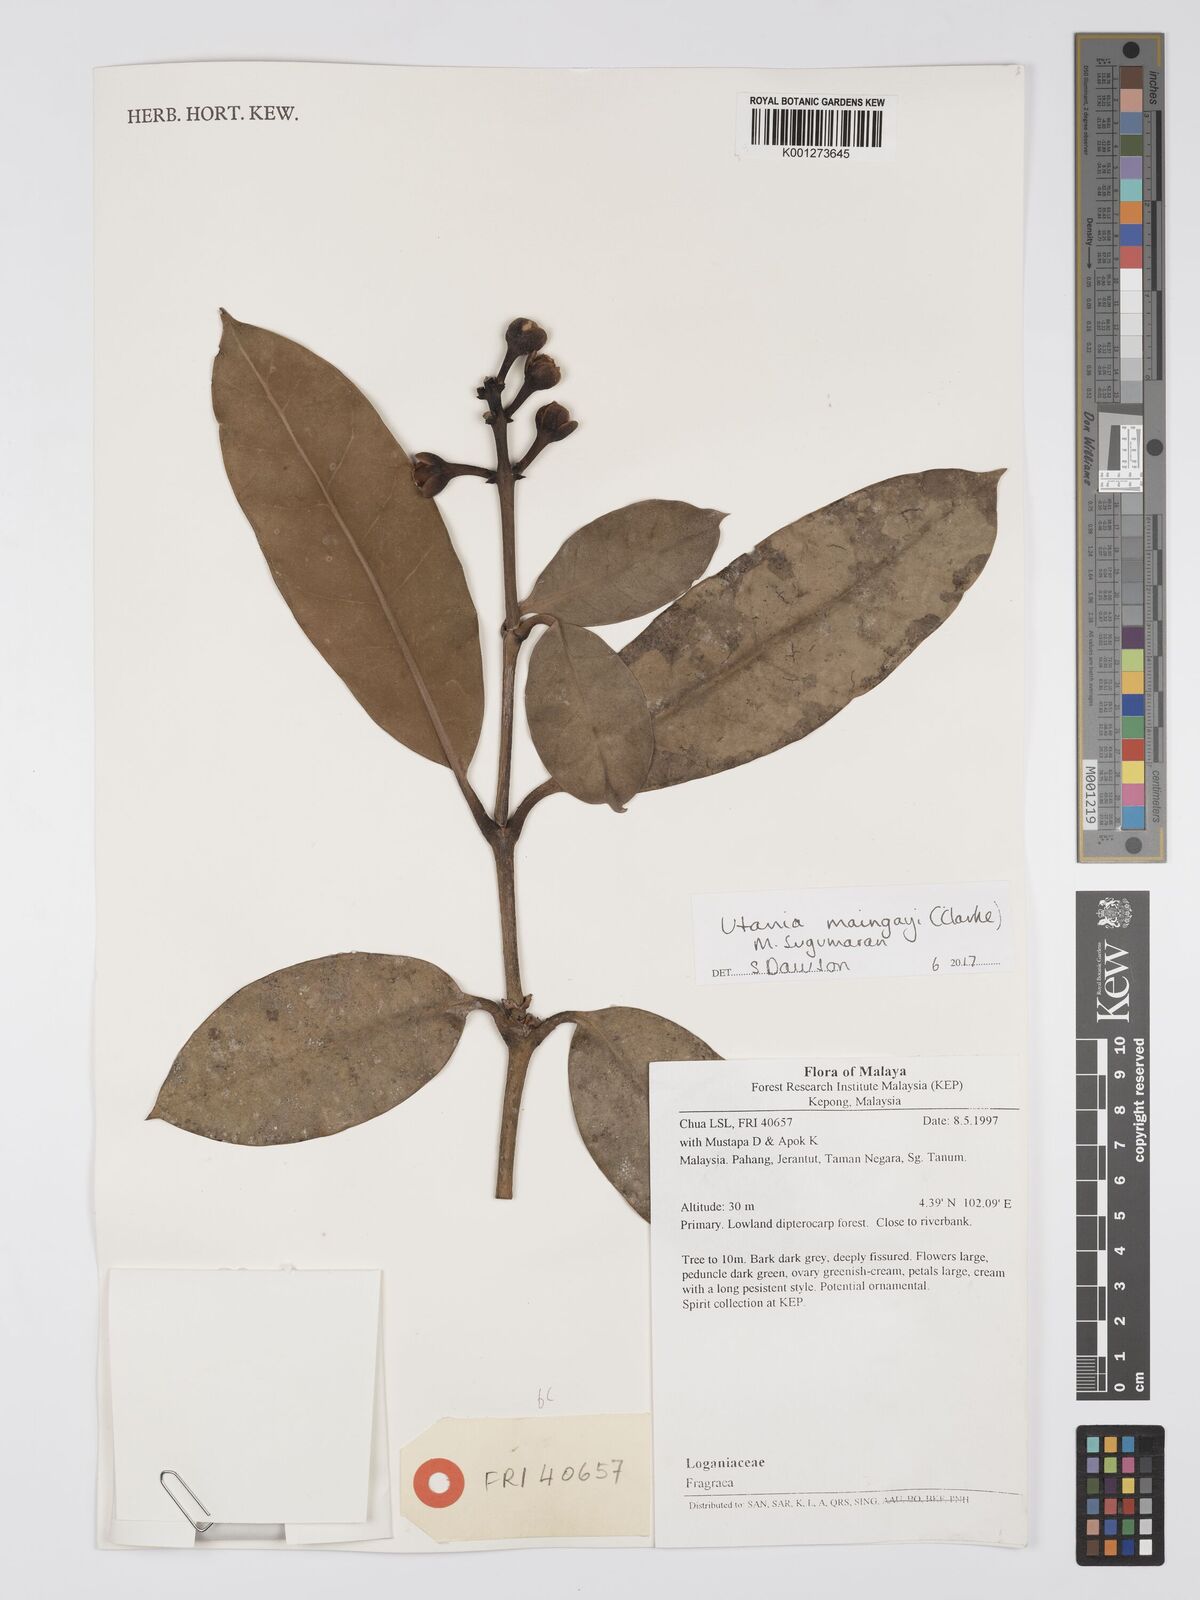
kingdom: Plantae
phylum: Tracheophyta
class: Magnoliopsida
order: Gentianales
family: Gentianaceae
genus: Utania
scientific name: Utania maingayi
